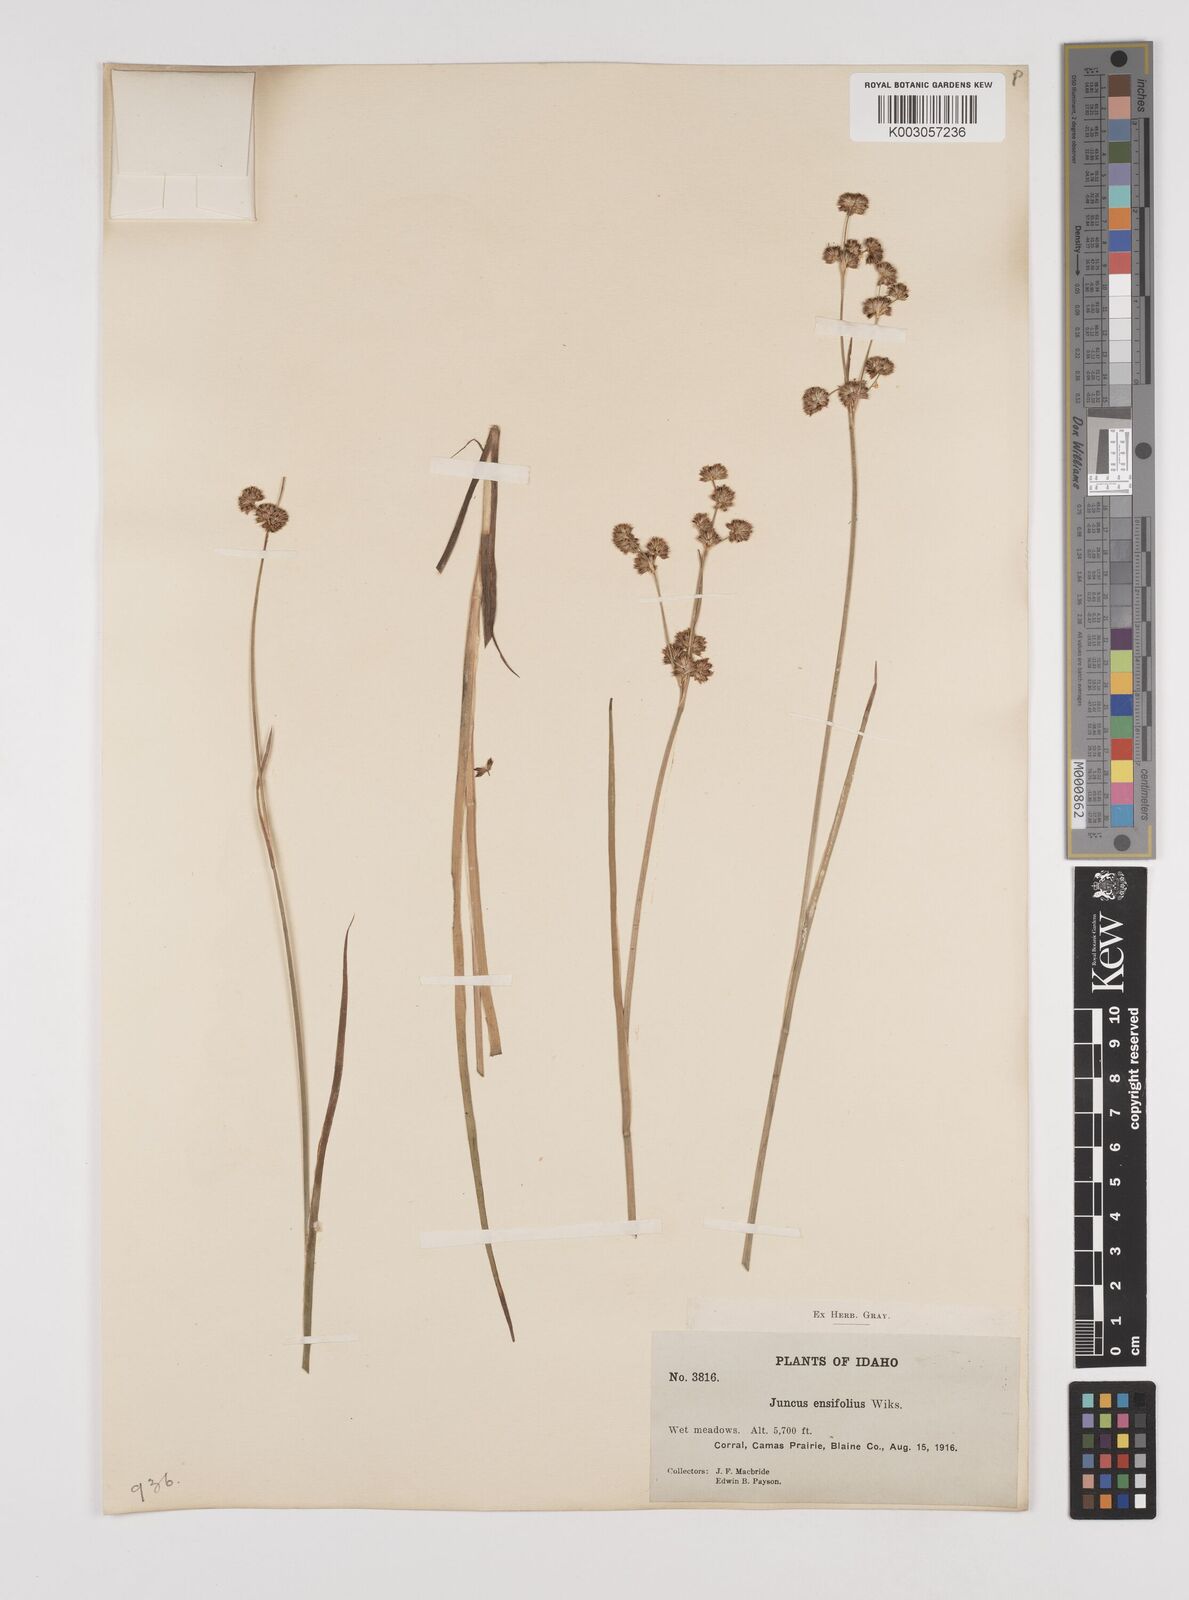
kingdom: Plantae
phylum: Tracheophyta
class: Liliopsida
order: Poales
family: Juncaceae
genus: Juncus
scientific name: Juncus ensifolius
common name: Sword-leaved rush
